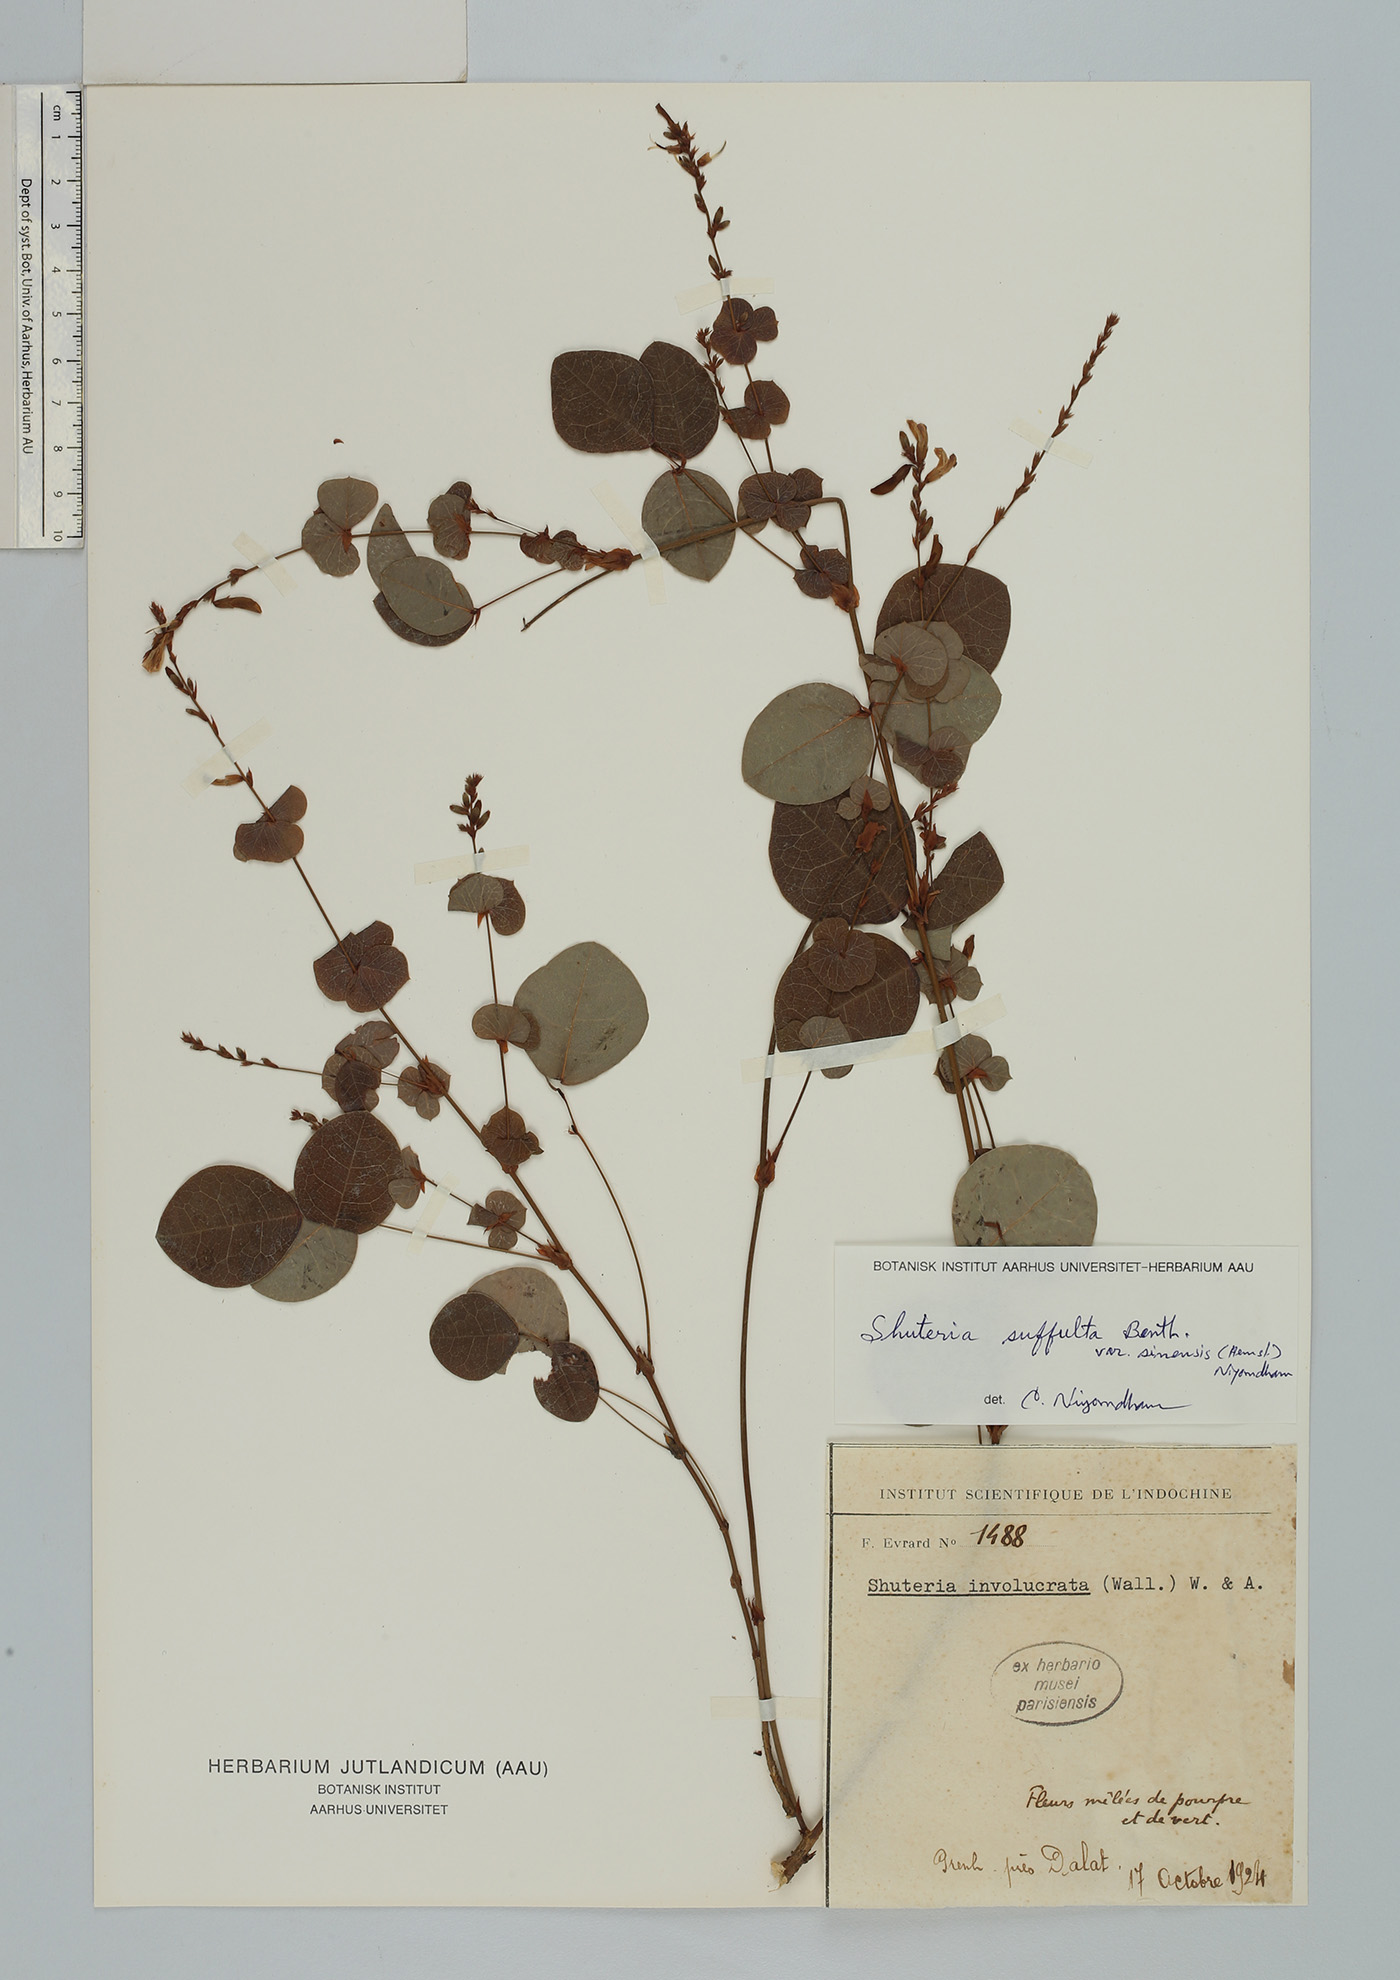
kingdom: Plantae
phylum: Tracheophyta
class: Magnoliopsida
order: Fabales
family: Fabaceae
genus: Shuteria
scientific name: Shuteria involucrata
